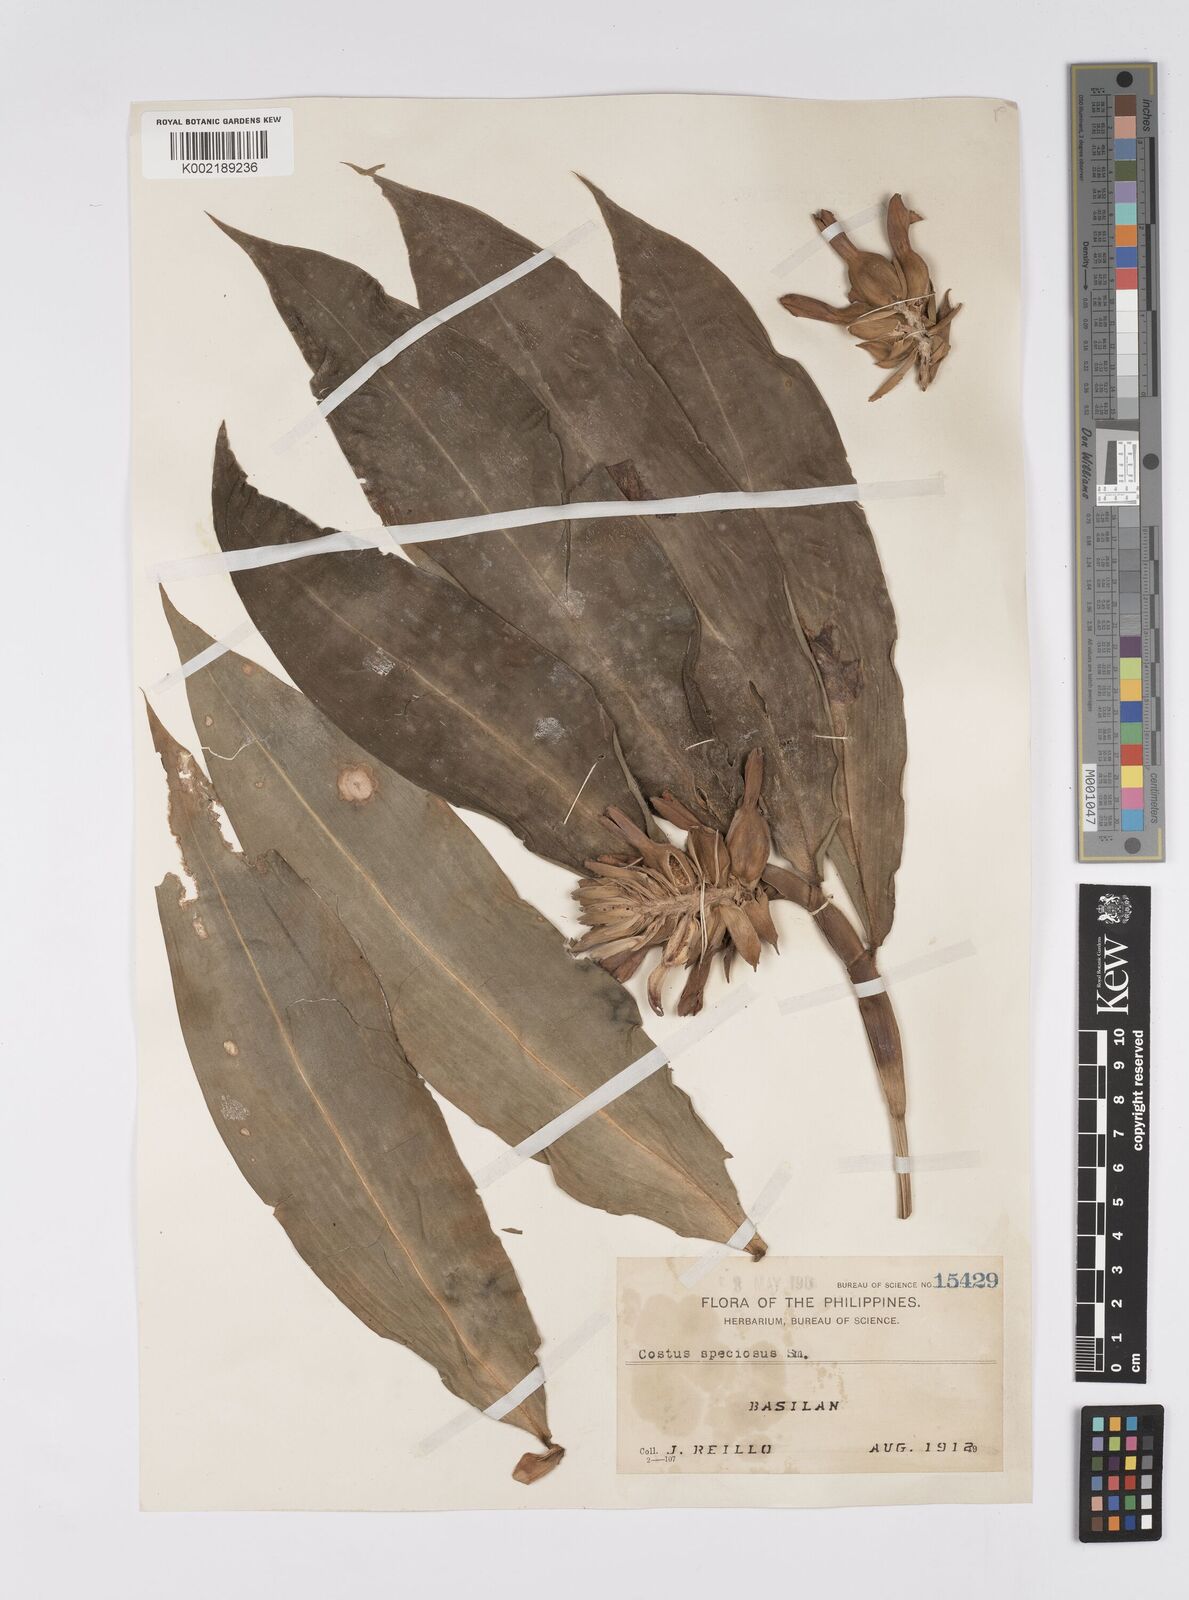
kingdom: Plantae
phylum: Tracheophyta
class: Liliopsida
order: Zingiberales
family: Costaceae
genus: Hellenia
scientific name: Hellenia speciosa
